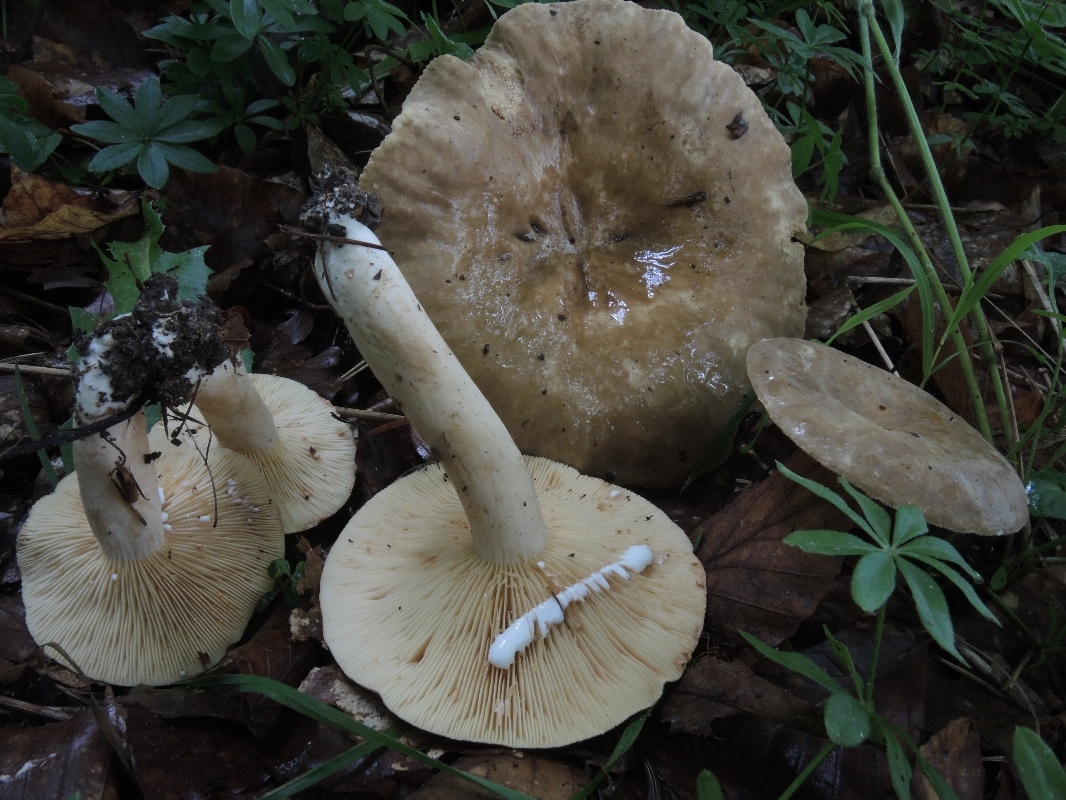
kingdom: Fungi
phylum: Basidiomycota
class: Agaricomycetes
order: Russulales
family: Russulaceae
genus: Lactarius
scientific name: Lactarius pterosporus
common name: vingesporet mælkehat
